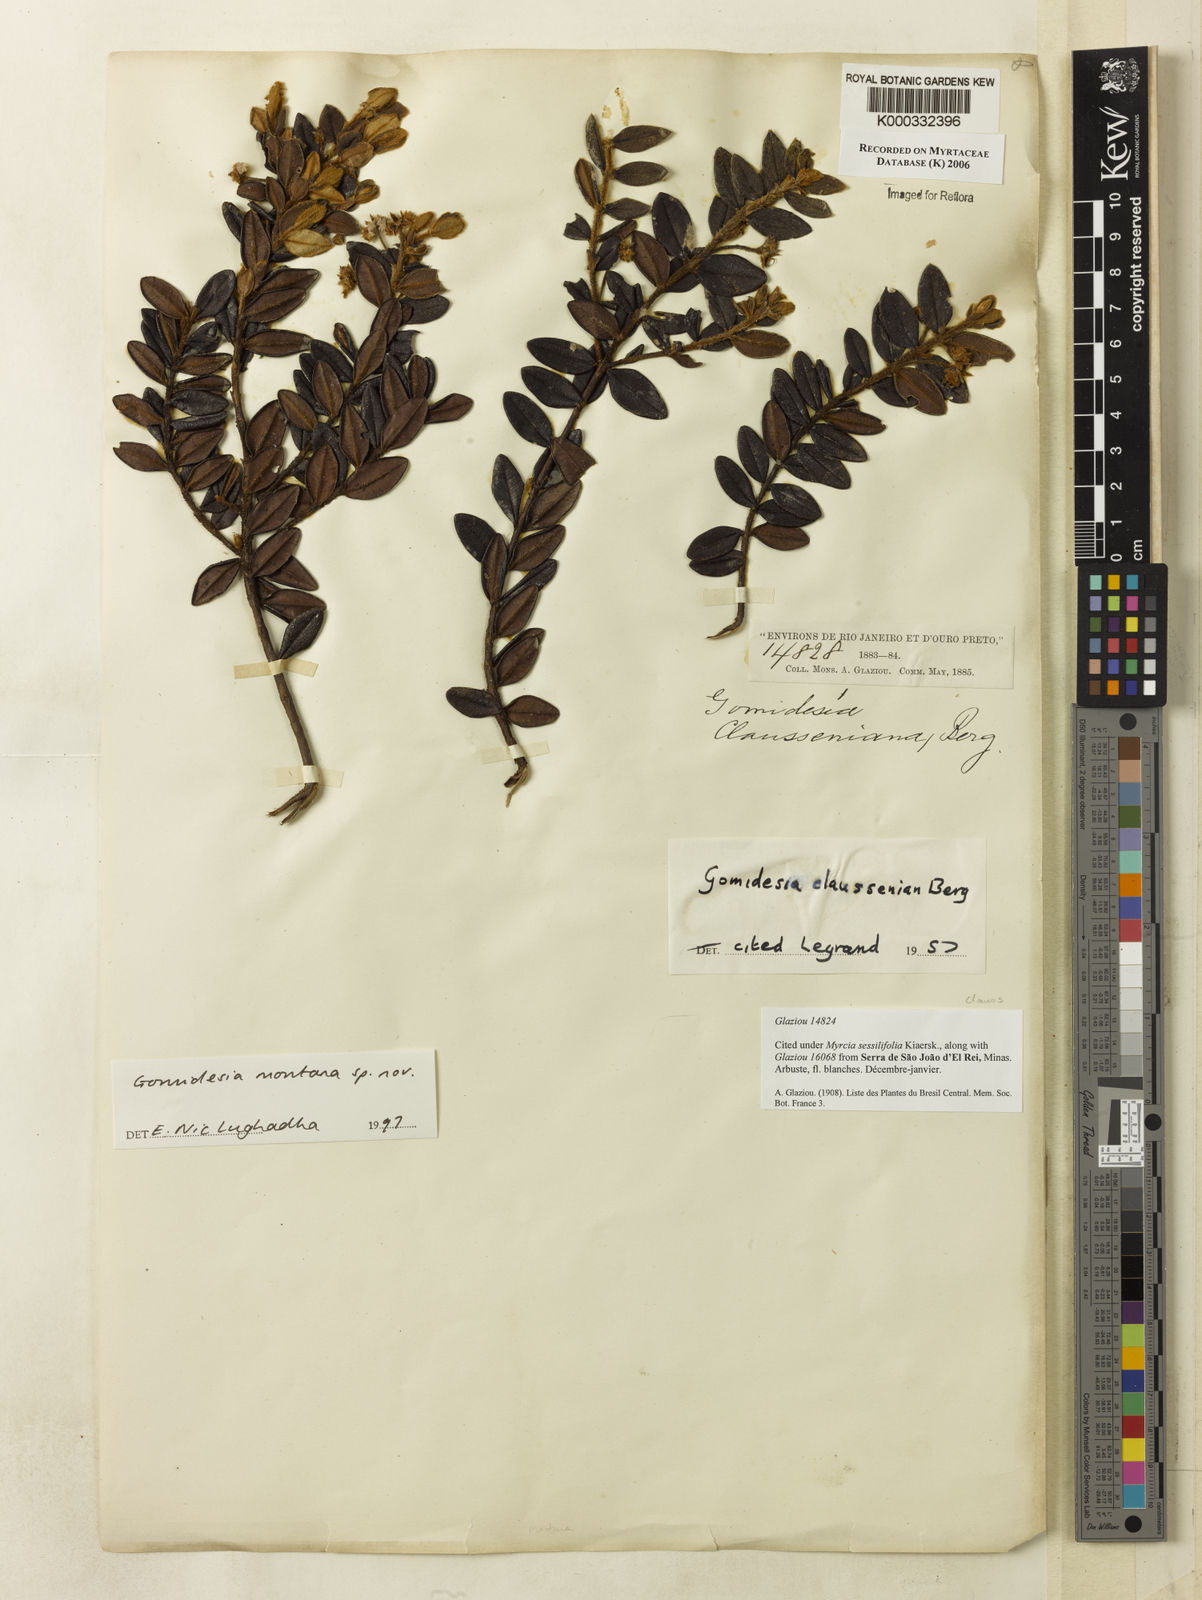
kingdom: Plantae
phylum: Tracheophyta
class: Magnoliopsida
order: Myrtales
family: Myrtaceae
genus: Myrcia
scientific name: Myrcia
